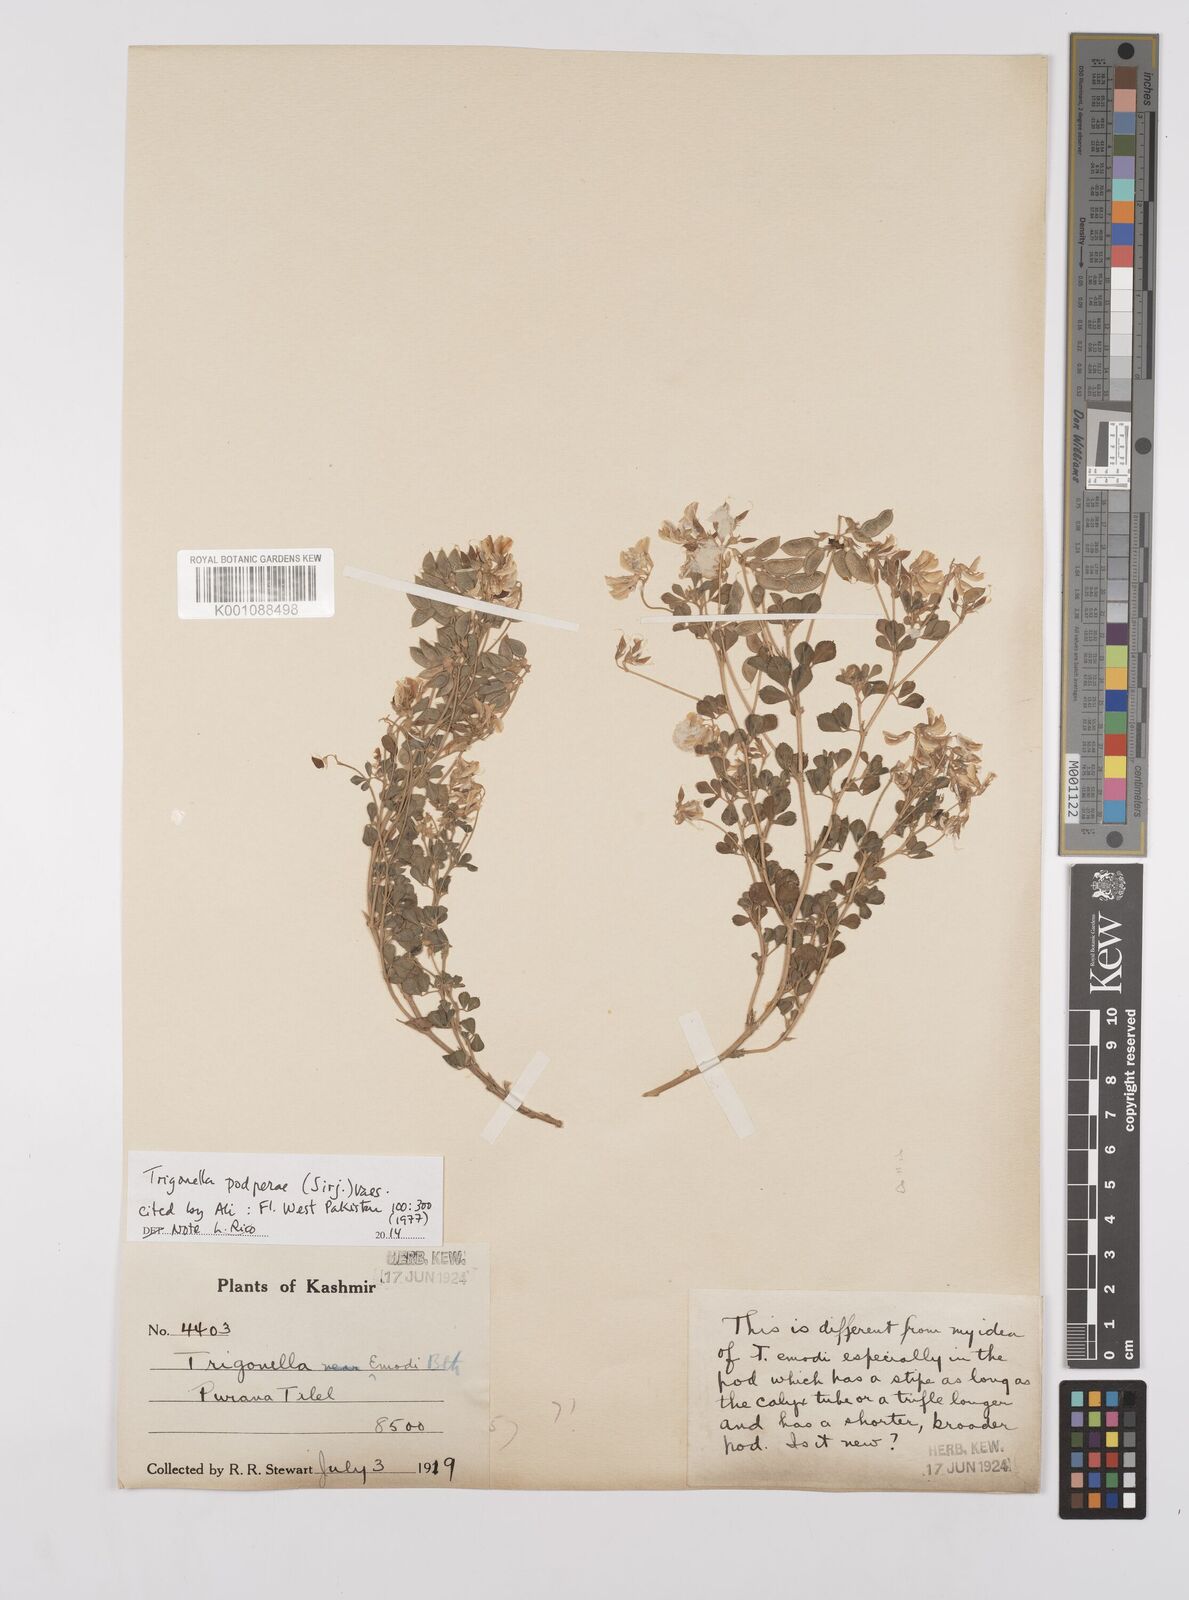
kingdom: Plantae
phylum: Tracheophyta
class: Magnoliopsida
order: Fabales
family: Fabaceae
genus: Trigonella
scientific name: Trigonella podperae
